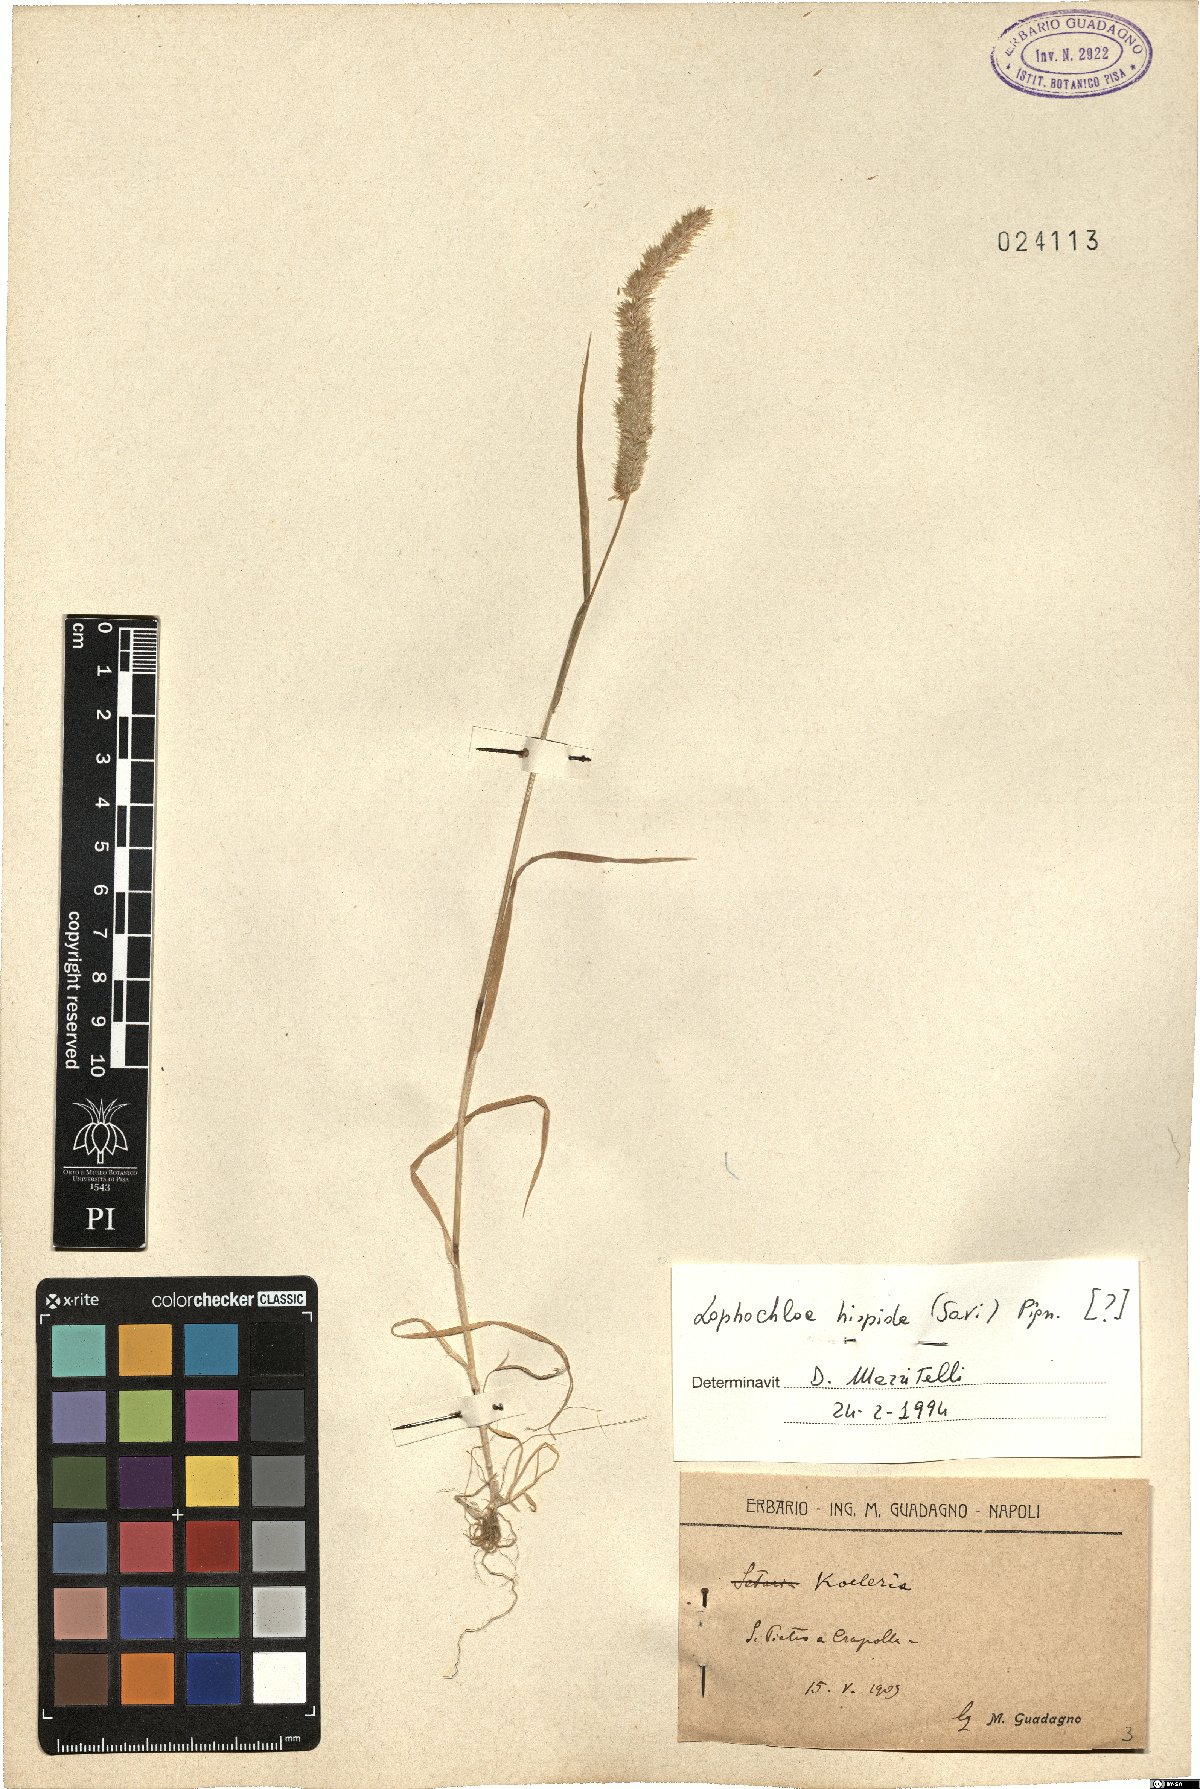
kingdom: Plantae
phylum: Tracheophyta
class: Liliopsida
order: Poales
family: Poaceae
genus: Rostraria
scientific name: Rostraria hispida
